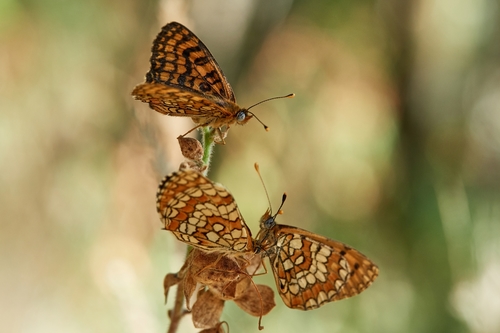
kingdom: Animalia
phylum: Arthropoda
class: Insecta
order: Lepidoptera
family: Nymphalidae
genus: Melitaea
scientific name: Melitaea deione
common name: Provençal fritillary
